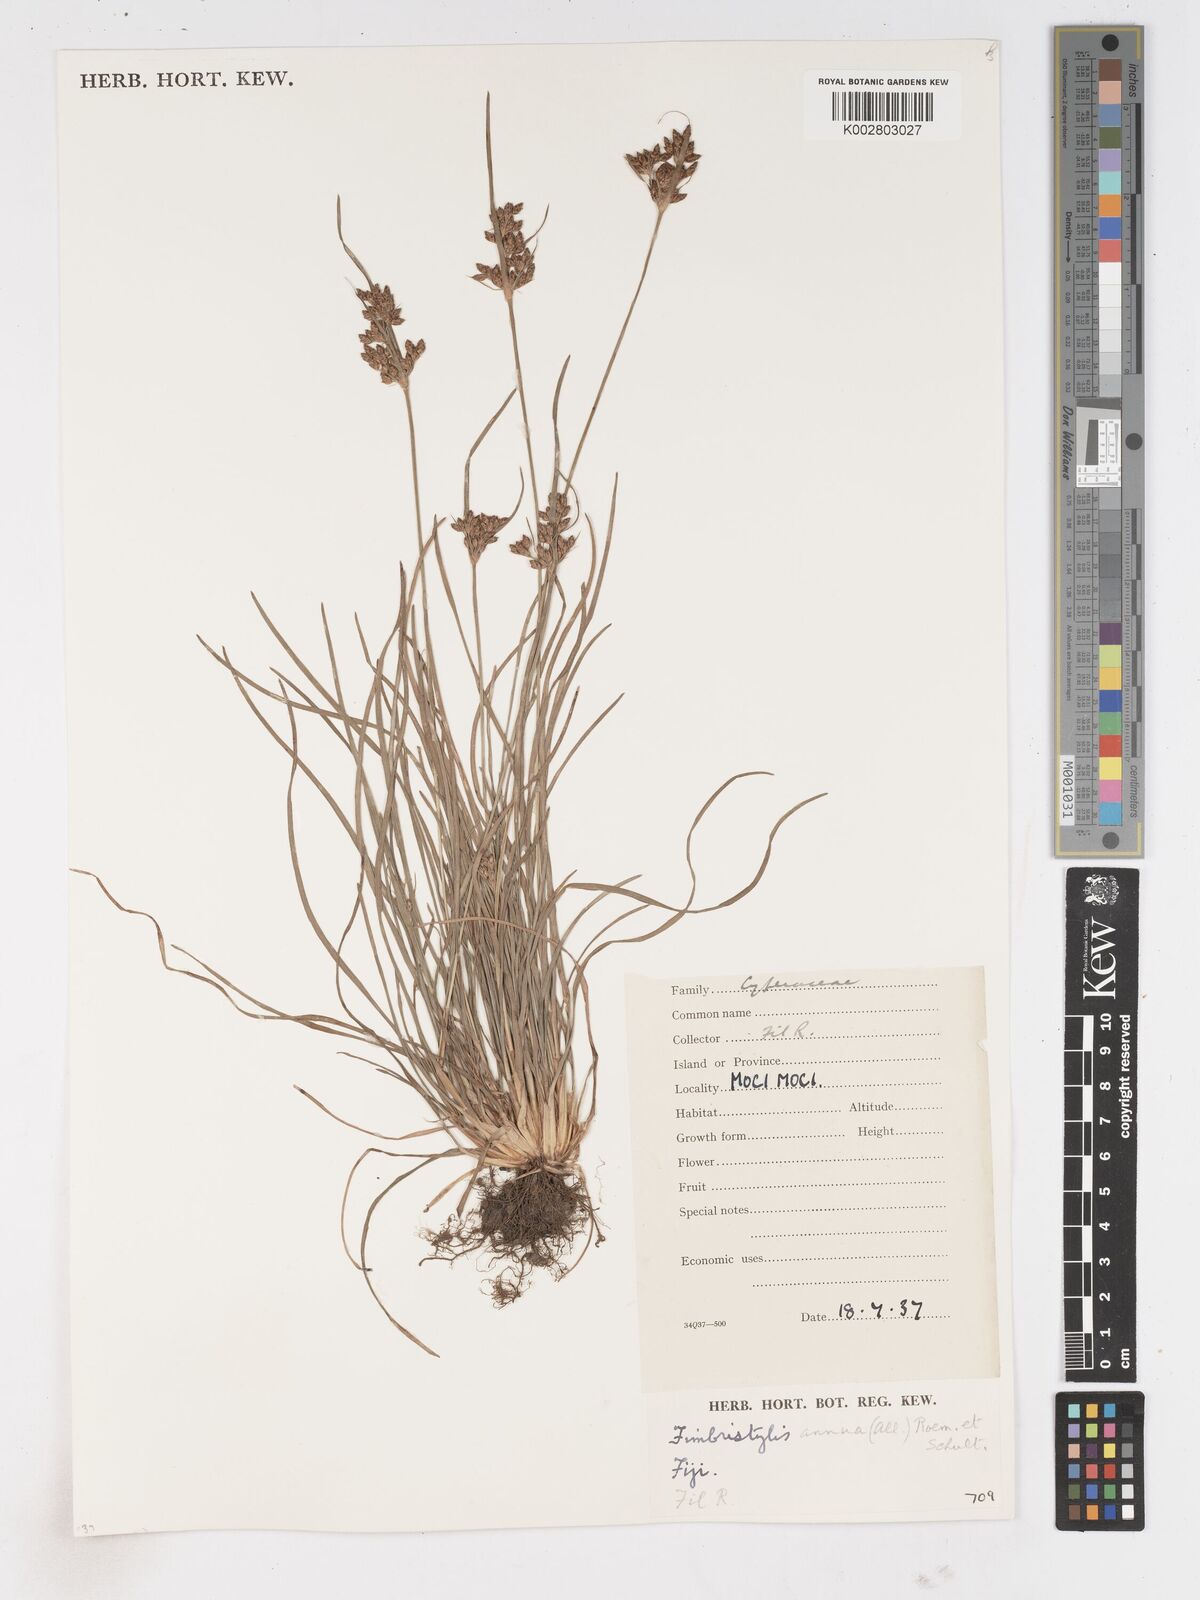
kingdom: Plantae
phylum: Tracheophyta
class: Liliopsida
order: Poales
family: Cyperaceae
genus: Fimbristylis
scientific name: Fimbristylis dichotoma
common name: Forked fimbry
